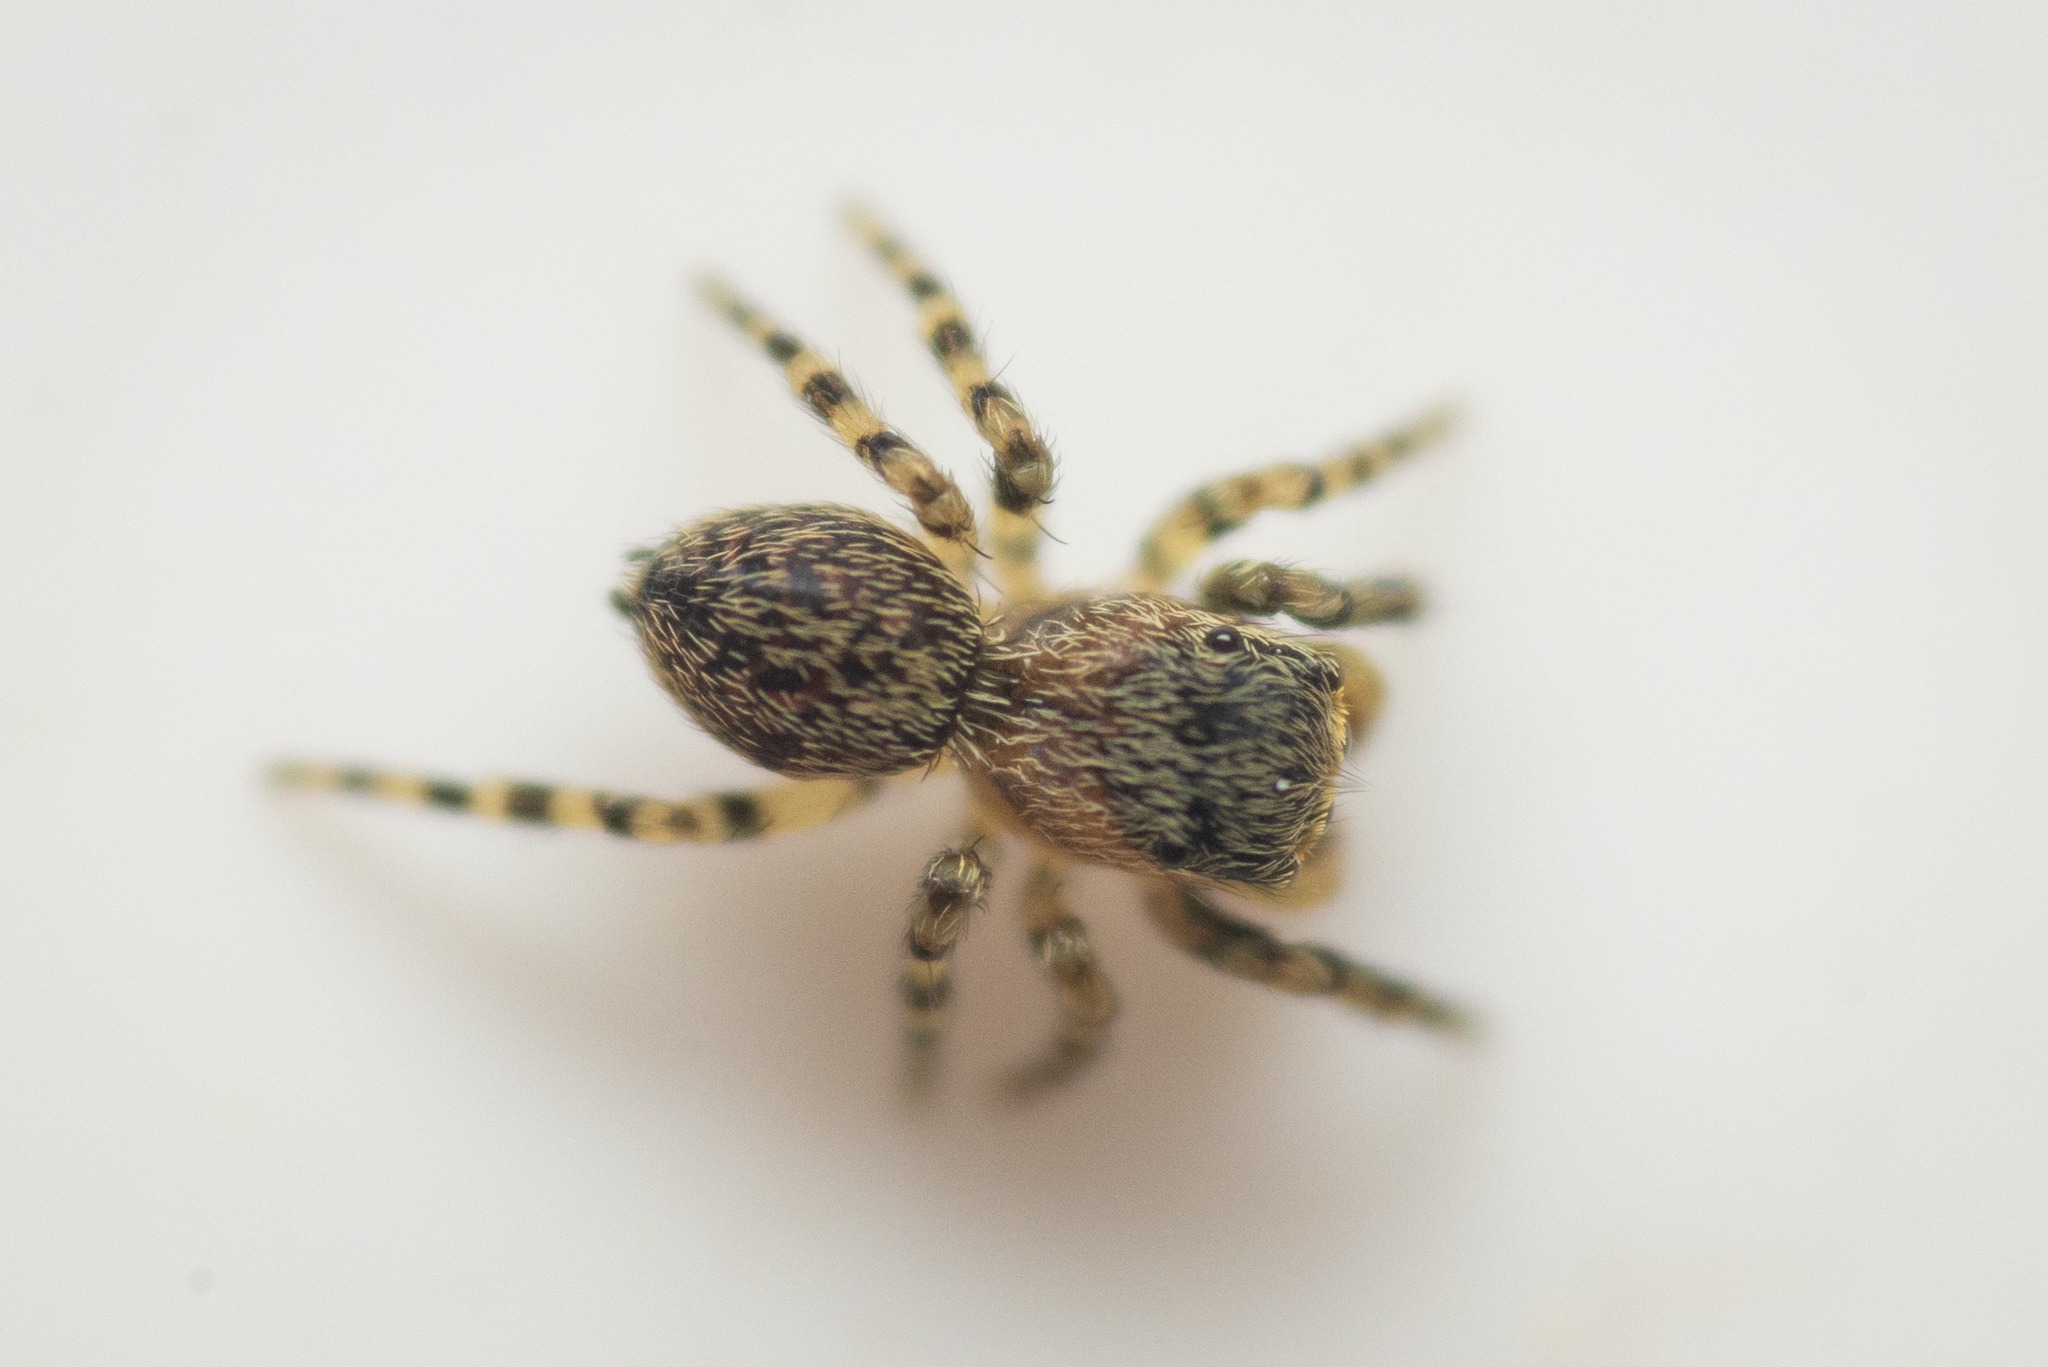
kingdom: Animalia
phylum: Arthropoda
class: Arachnida
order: Araneae
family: Salticidae
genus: Talavera
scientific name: Talavera aequipes
